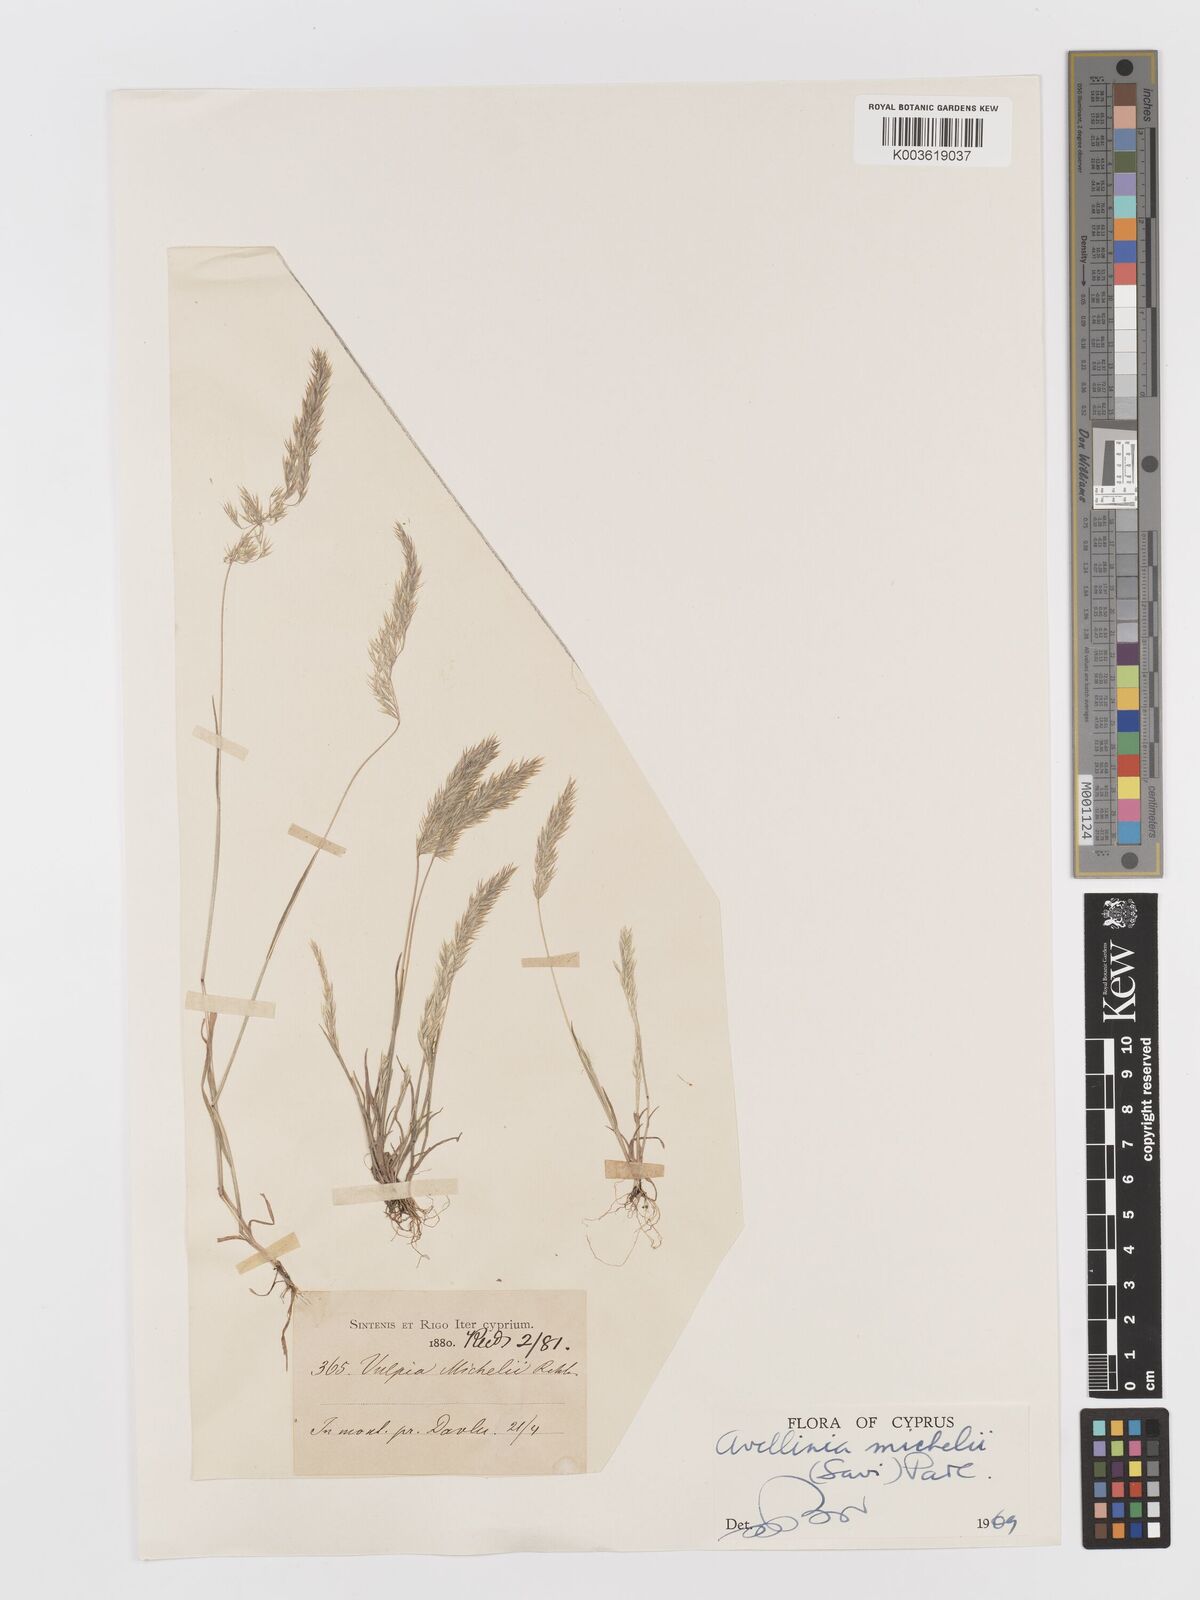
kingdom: Plantae
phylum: Tracheophyta
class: Liliopsida
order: Poales
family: Poaceae
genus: Avellinia
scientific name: Avellinia festucoides
